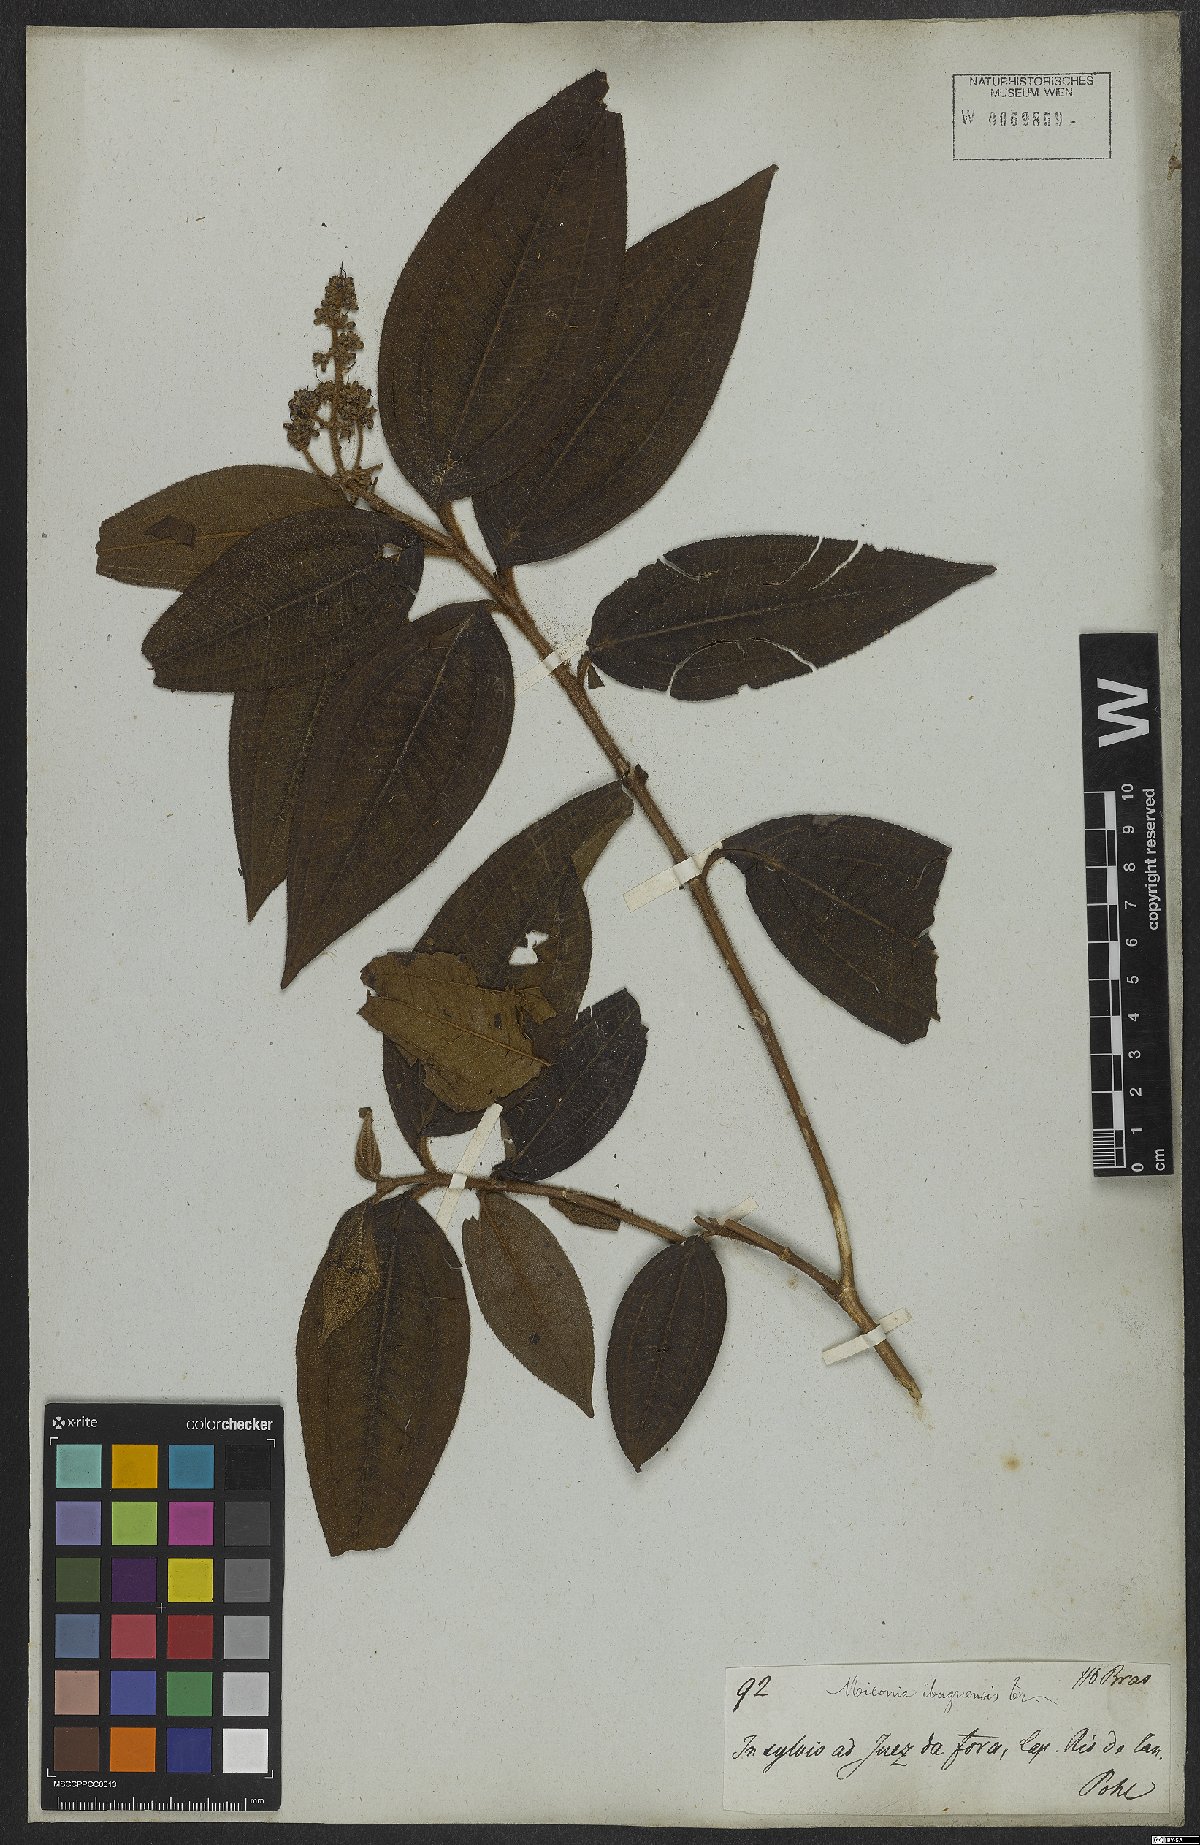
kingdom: Plantae
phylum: Tracheophyta
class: Magnoliopsida
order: Myrtales
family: Melastomataceae
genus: Miconia
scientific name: Miconia ibaguensis
